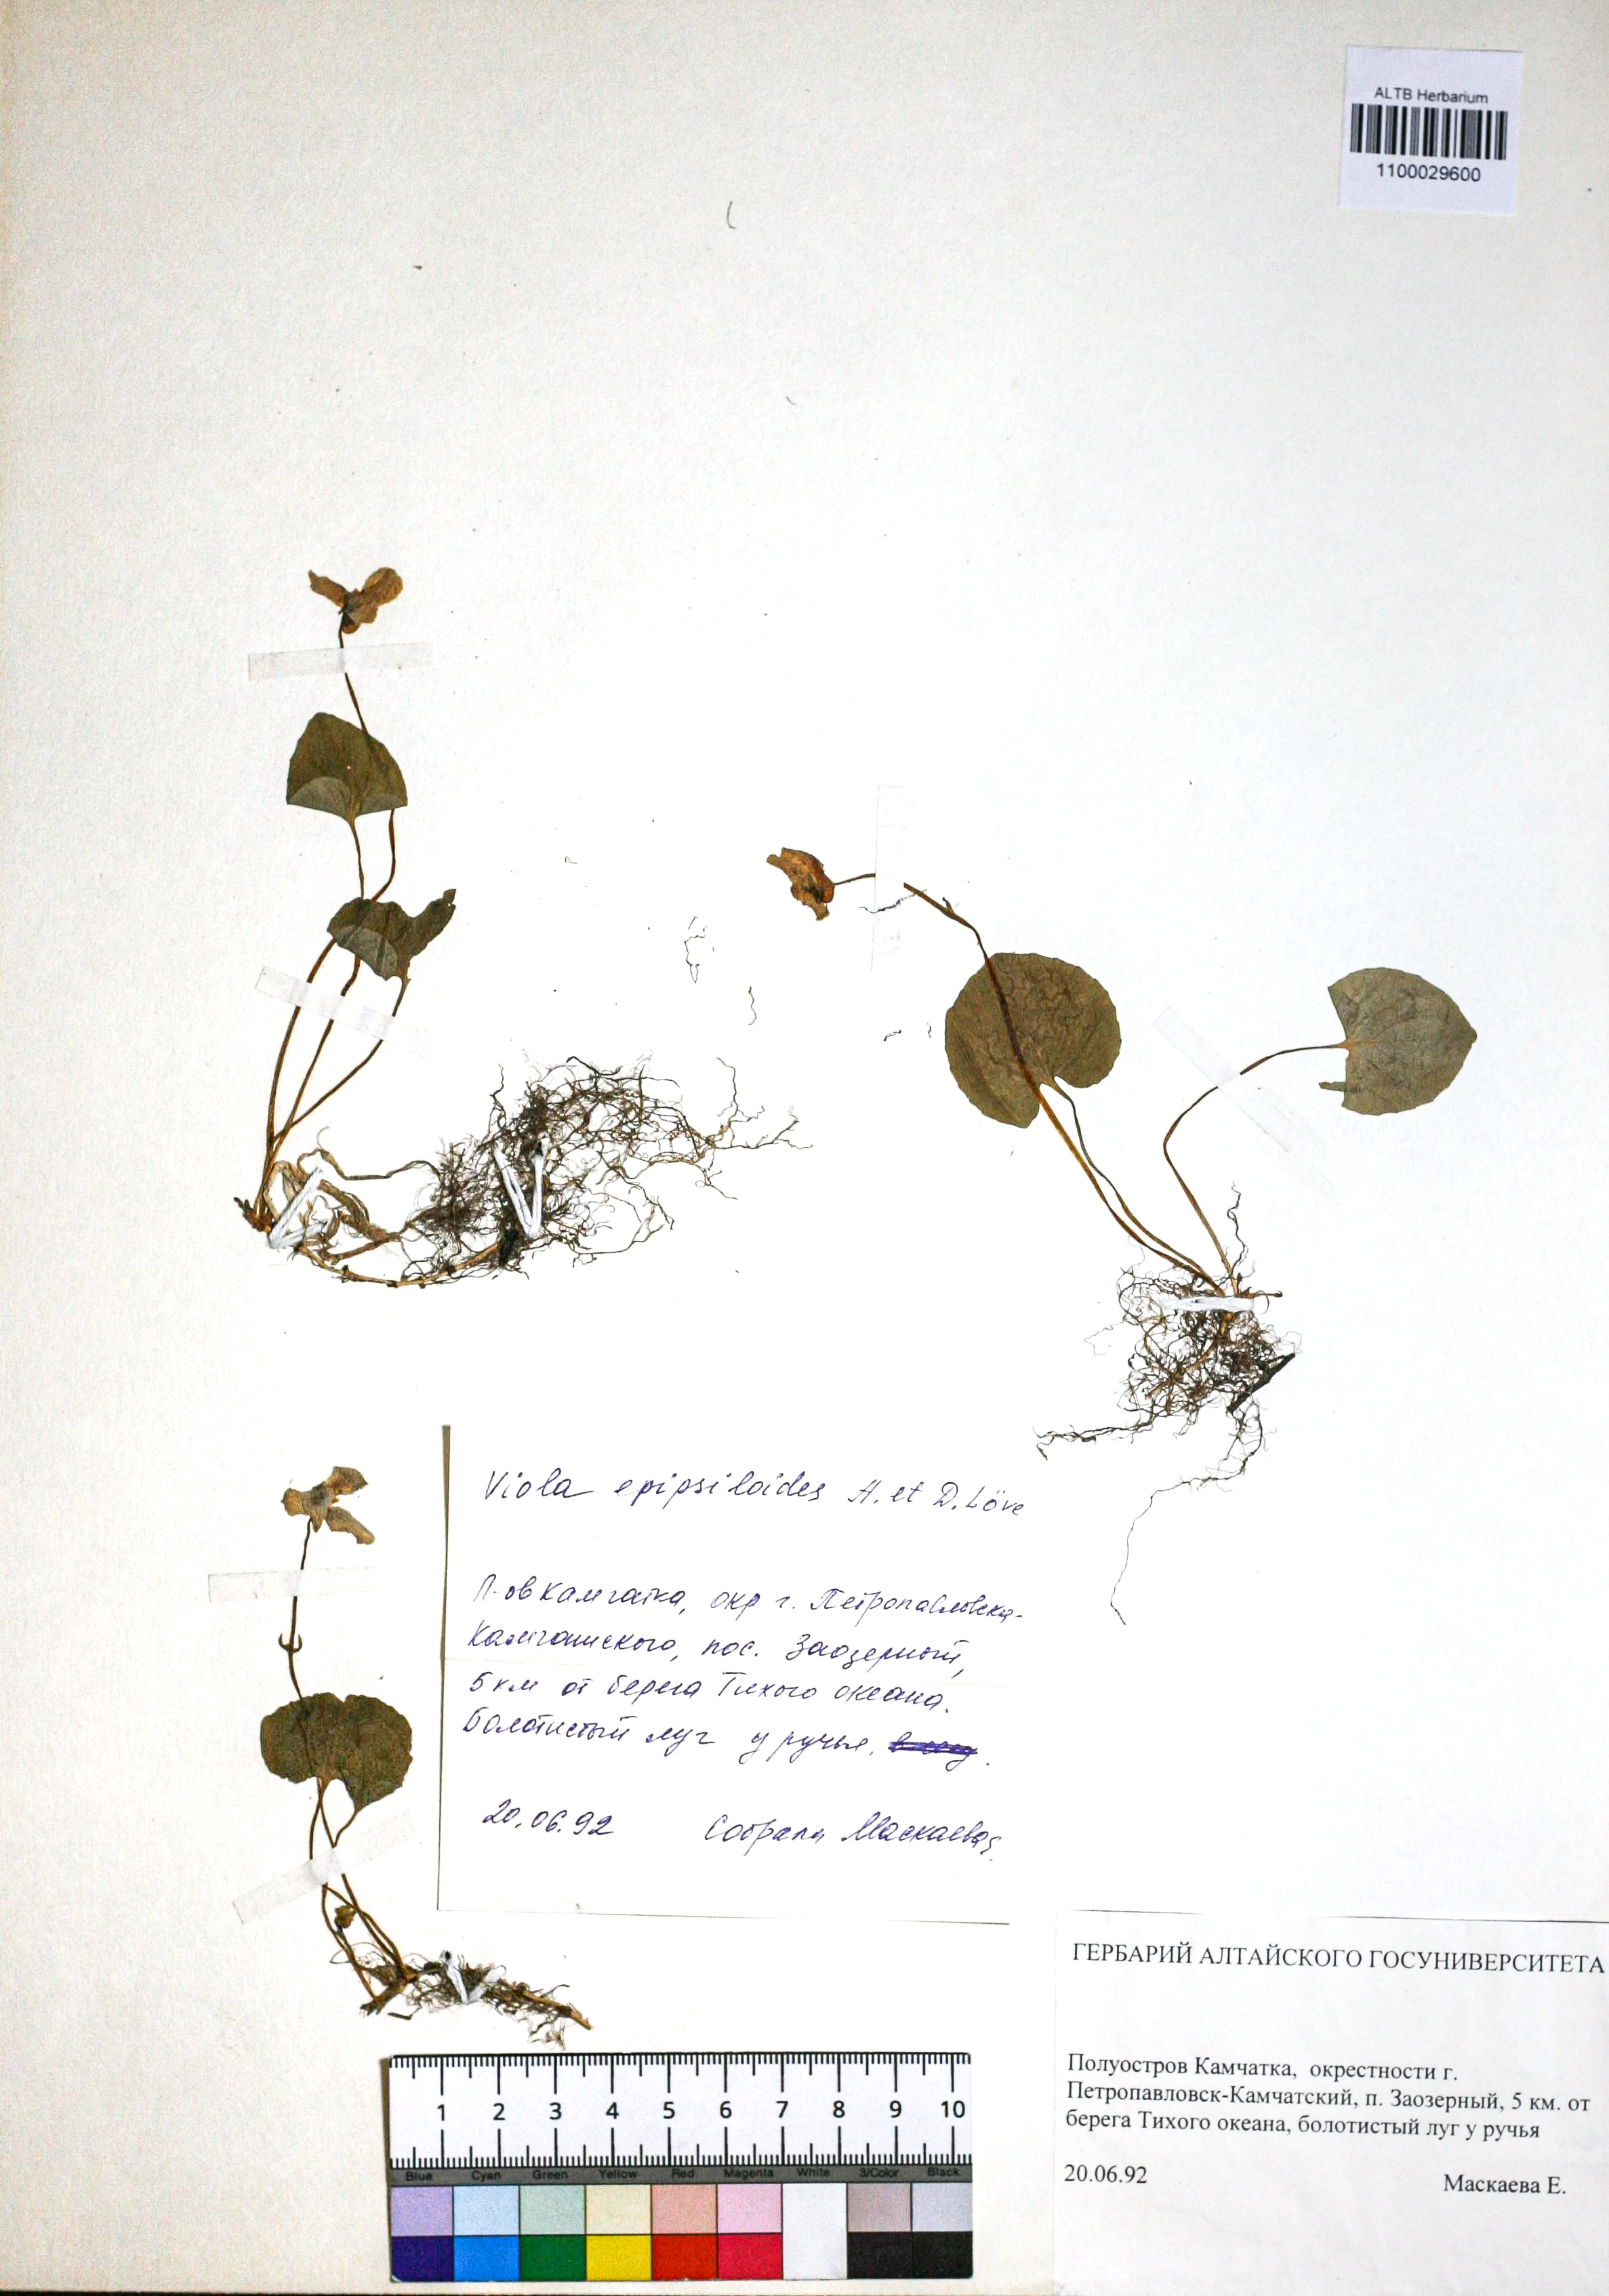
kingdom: Plantae
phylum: Tracheophyta
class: Magnoliopsida
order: Malpighiales
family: Violaceae
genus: Viola
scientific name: Viola epipsila
